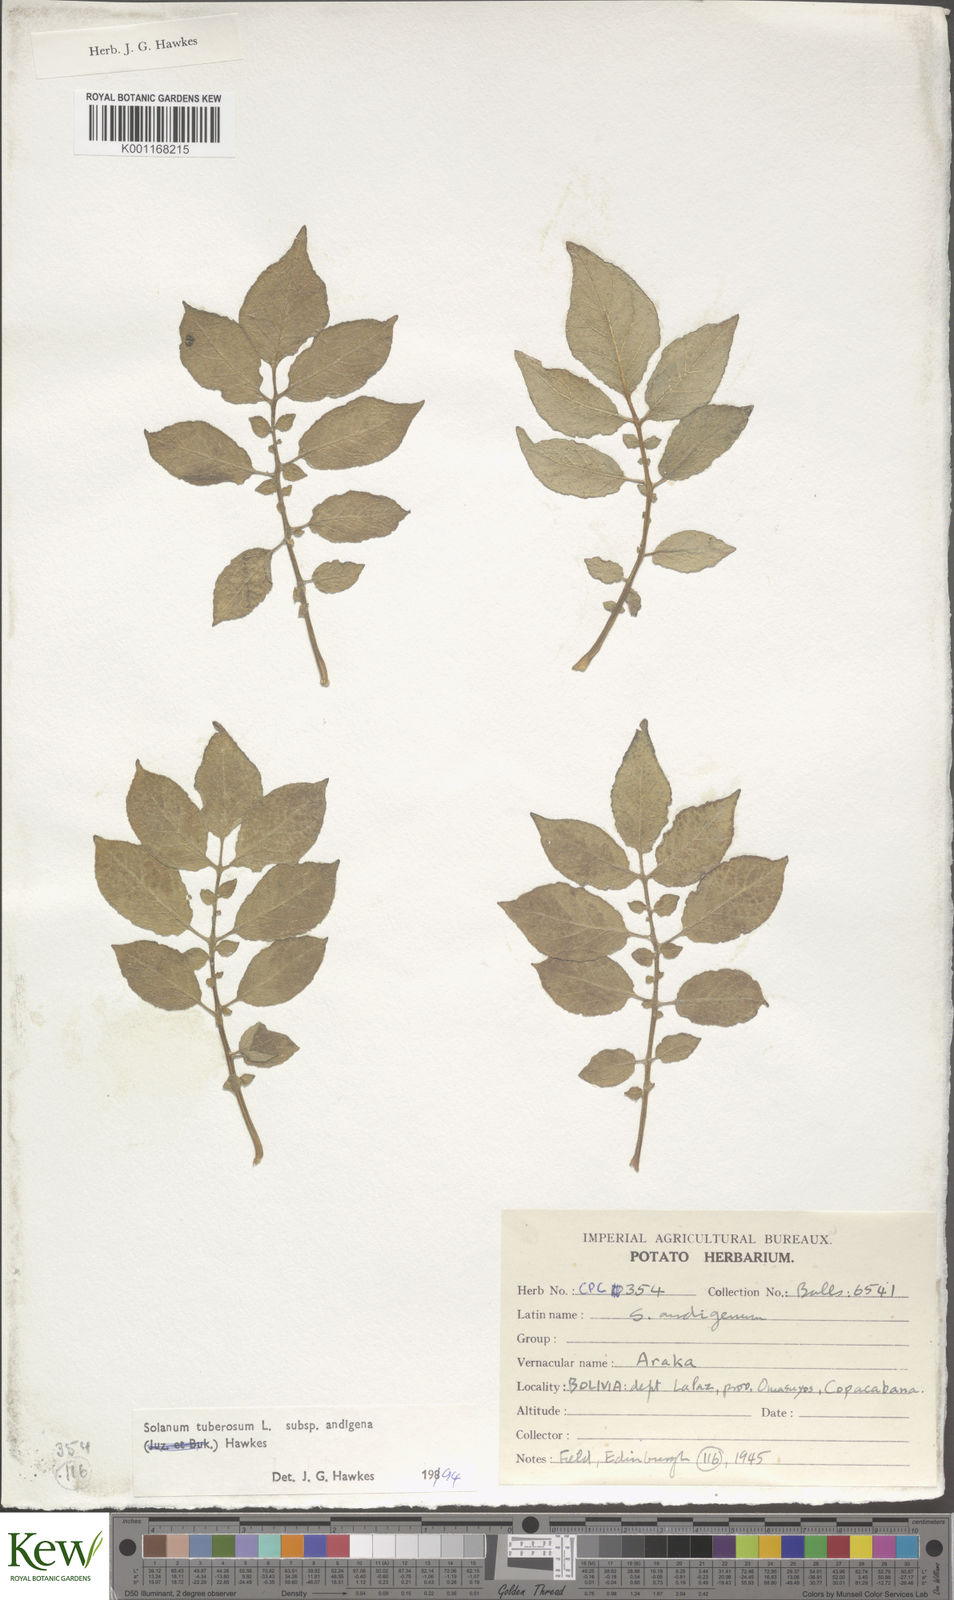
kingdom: Plantae
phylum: Tracheophyta
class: Magnoliopsida
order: Solanales
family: Solanaceae
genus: Solanum
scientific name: Solanum tuberosum
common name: Potato
